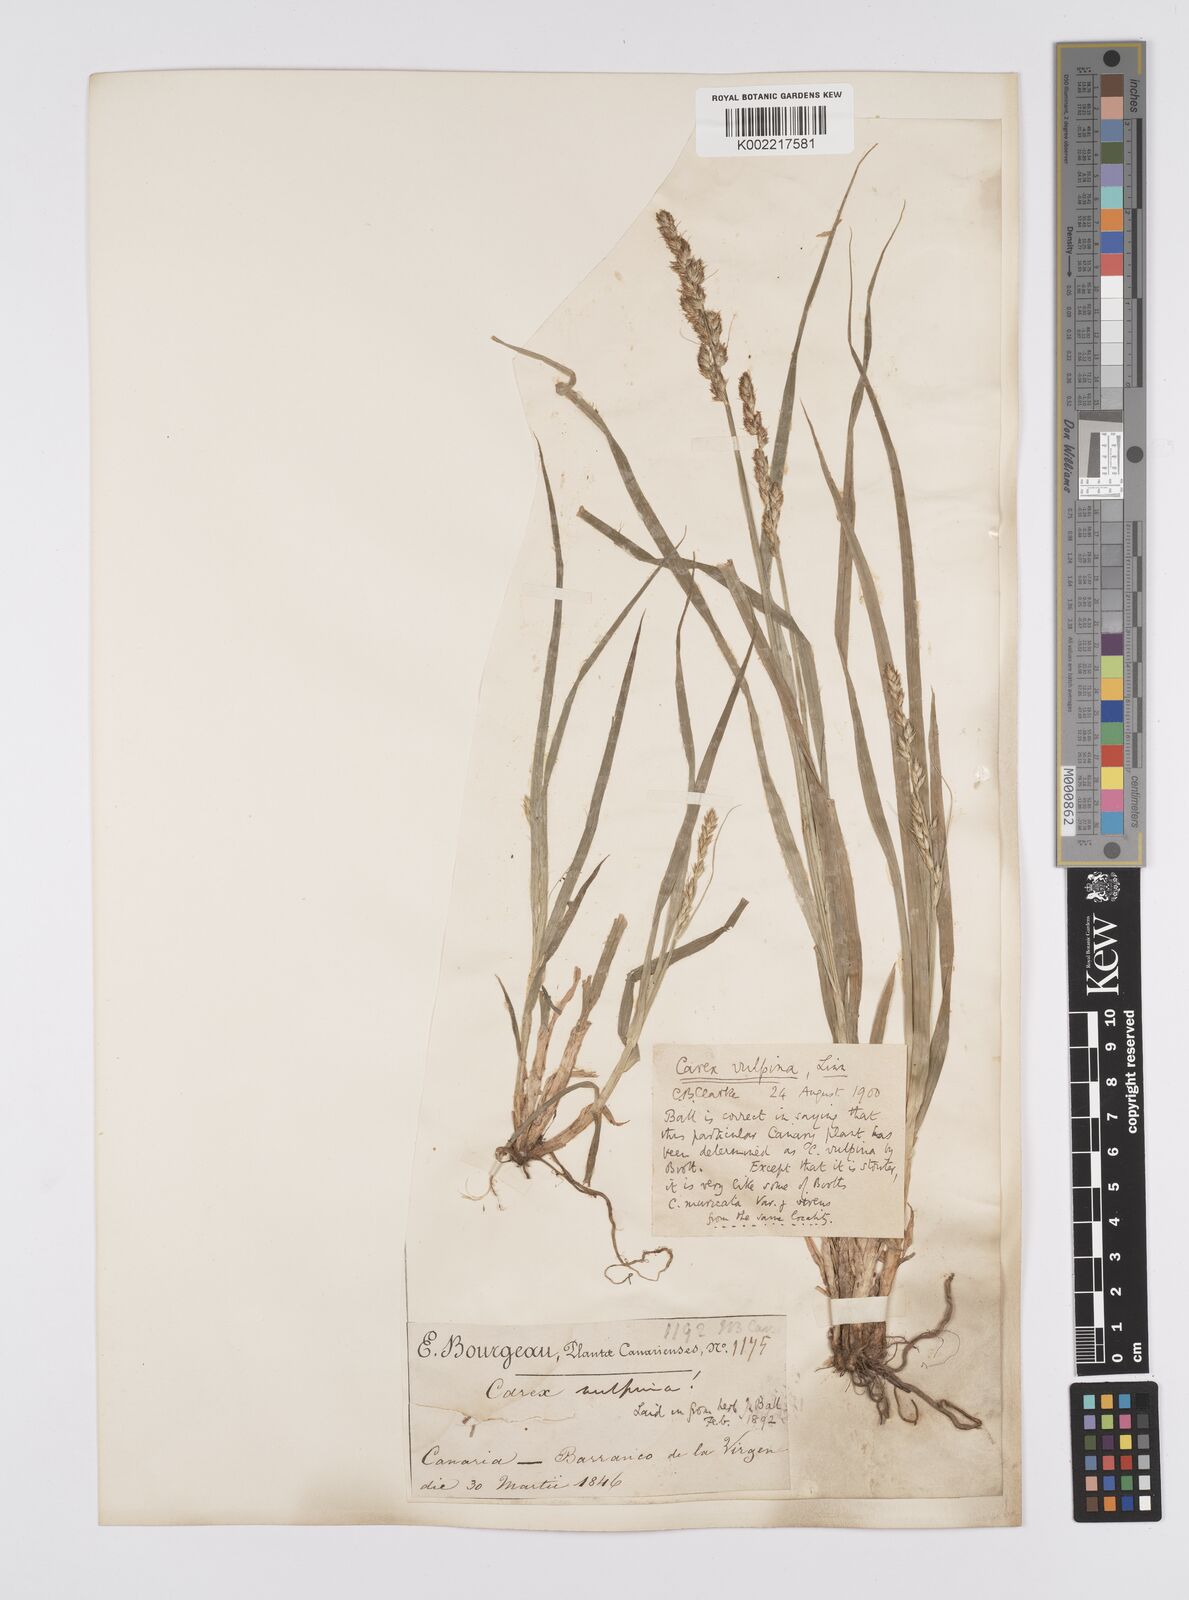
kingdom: Plantae
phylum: Tracheophyta
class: Liliopsida
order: Poales
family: Cyperaceae
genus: Carex
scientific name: Carex vulpina
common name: True fox-sedge
